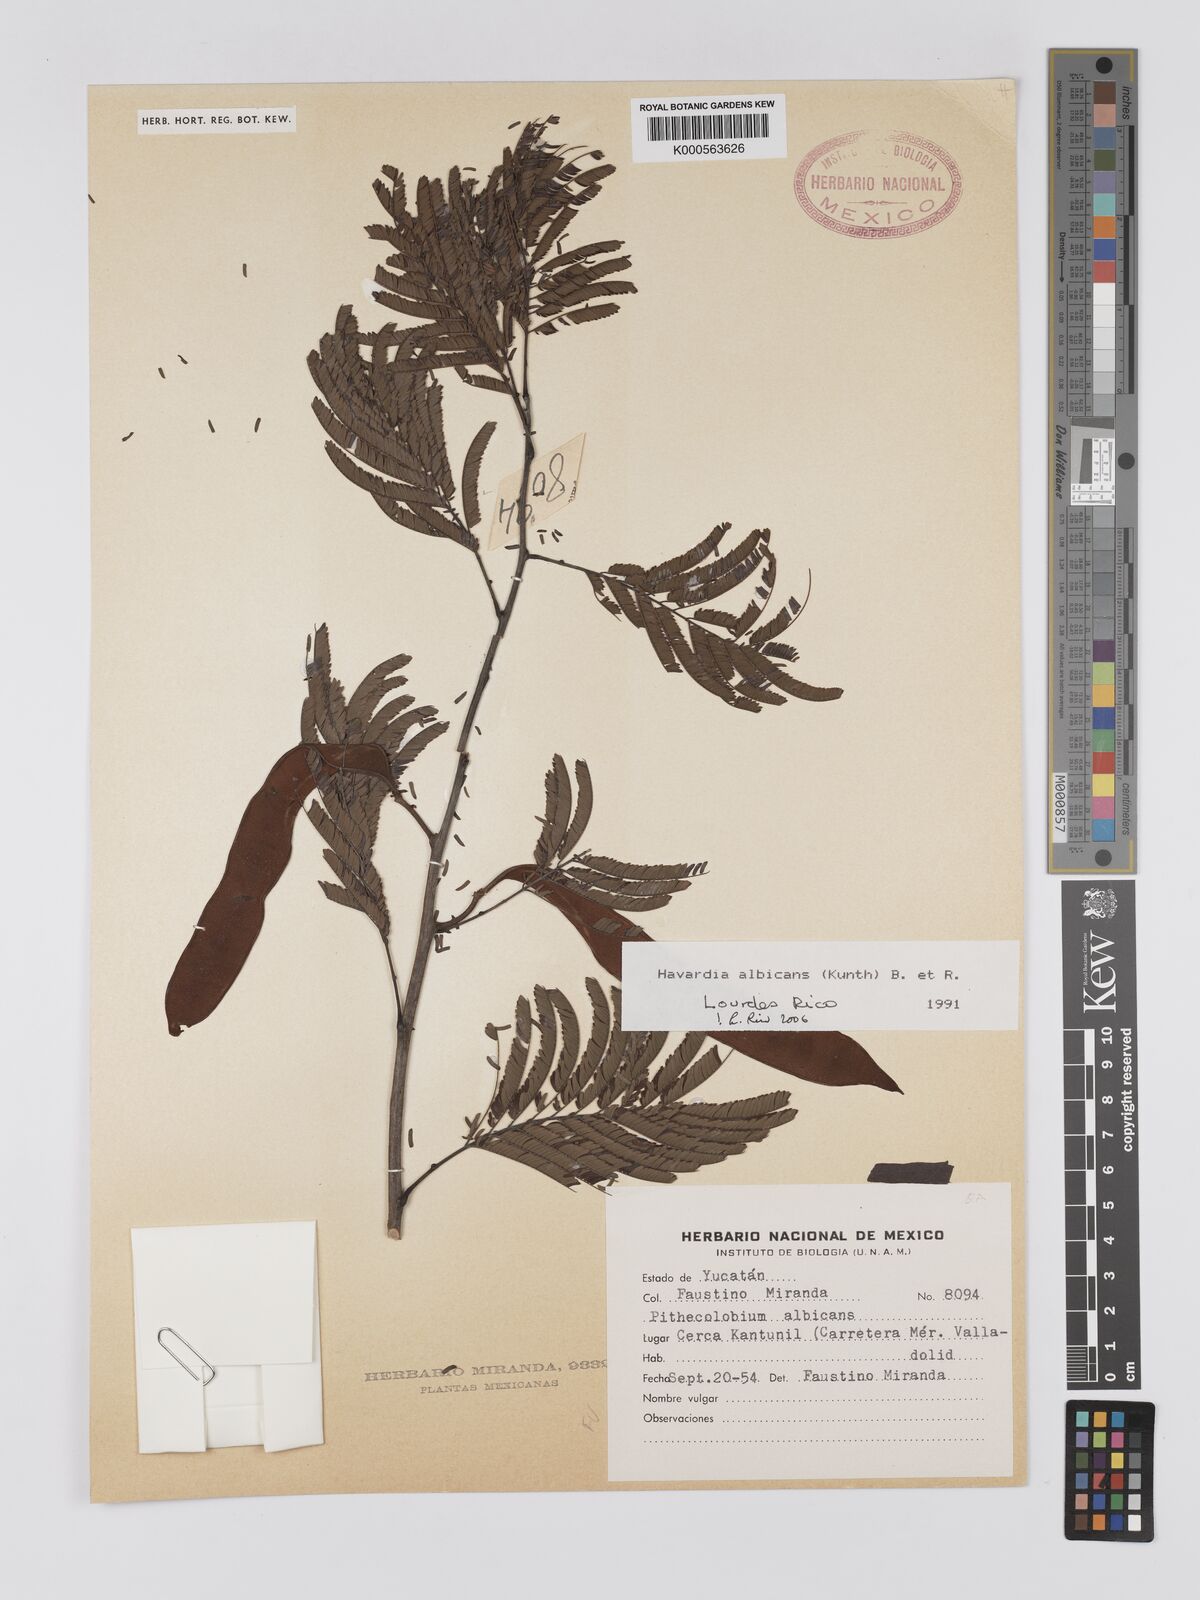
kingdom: Plantae
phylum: Tracheophyta
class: Magnoliopsida
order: Fabales
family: Fabaceae
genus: Havardia
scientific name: Havardia pallens
